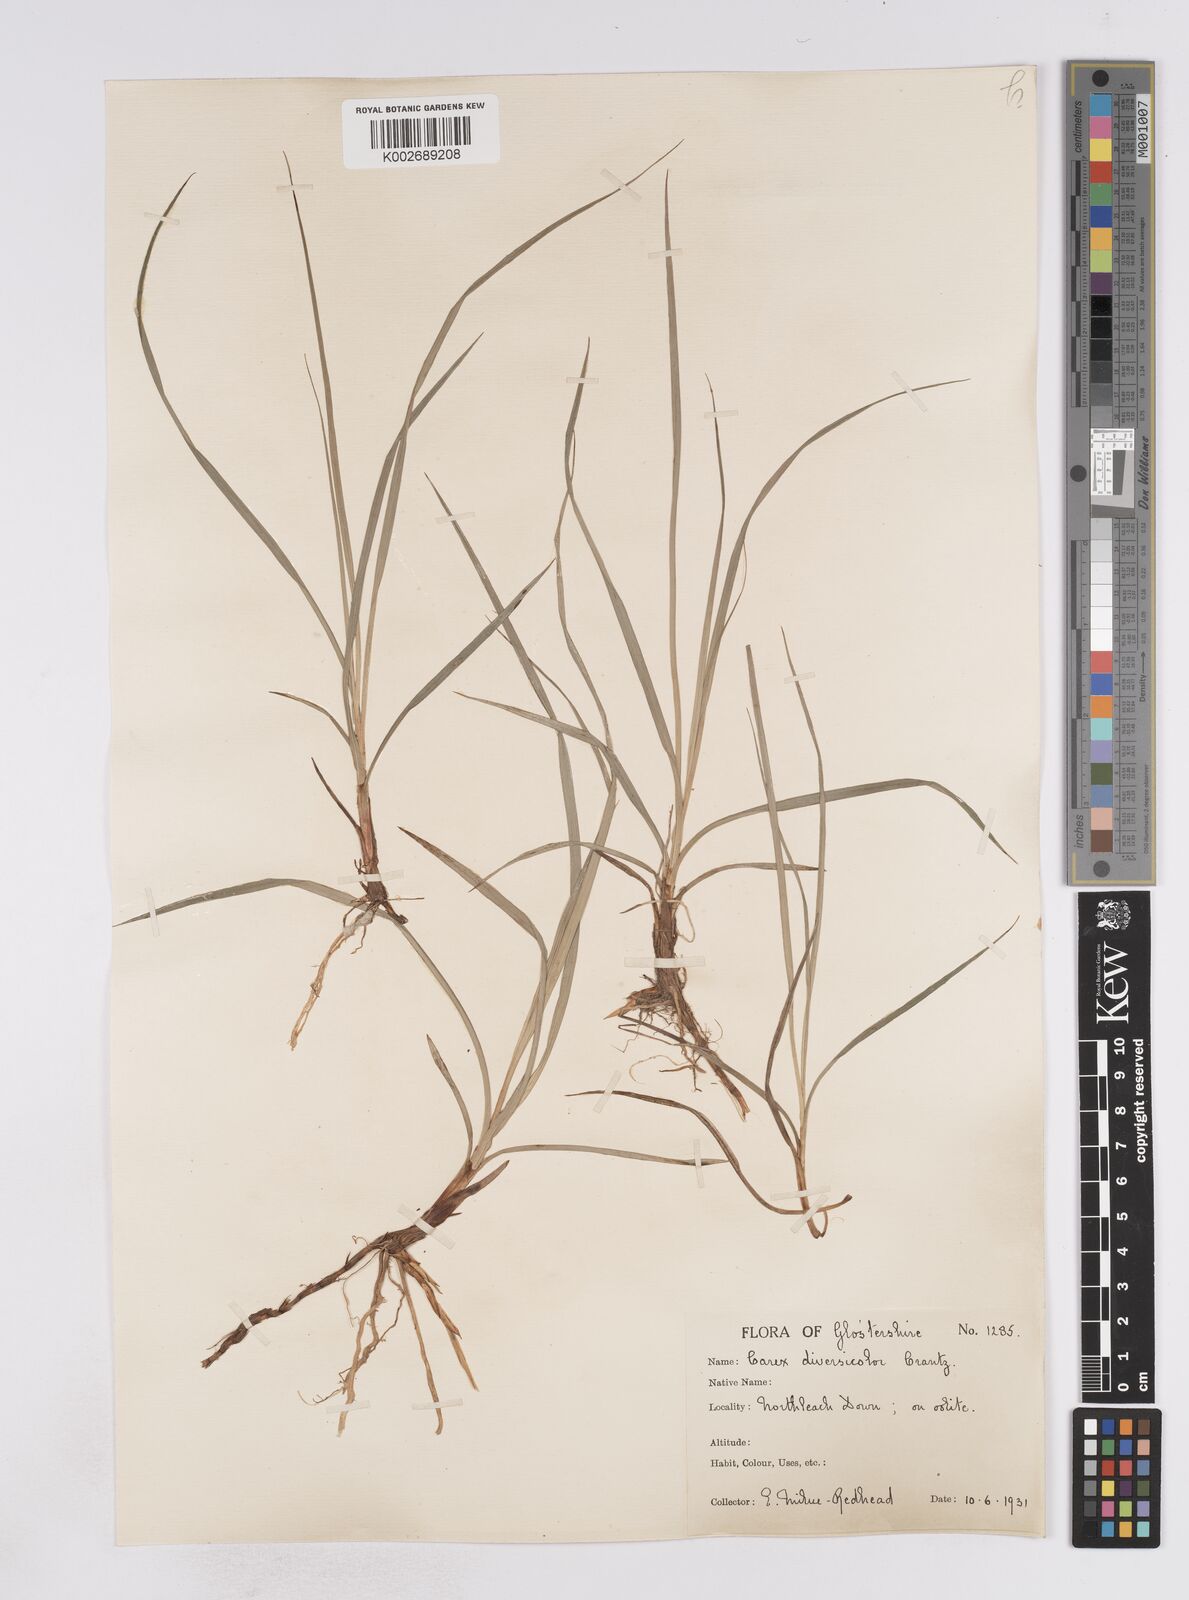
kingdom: Plantae
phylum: Tracheophyta
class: Liliopsida
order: Poales
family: Cyperaceae
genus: Carex
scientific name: Carex flacca
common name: Glaucous sedge
